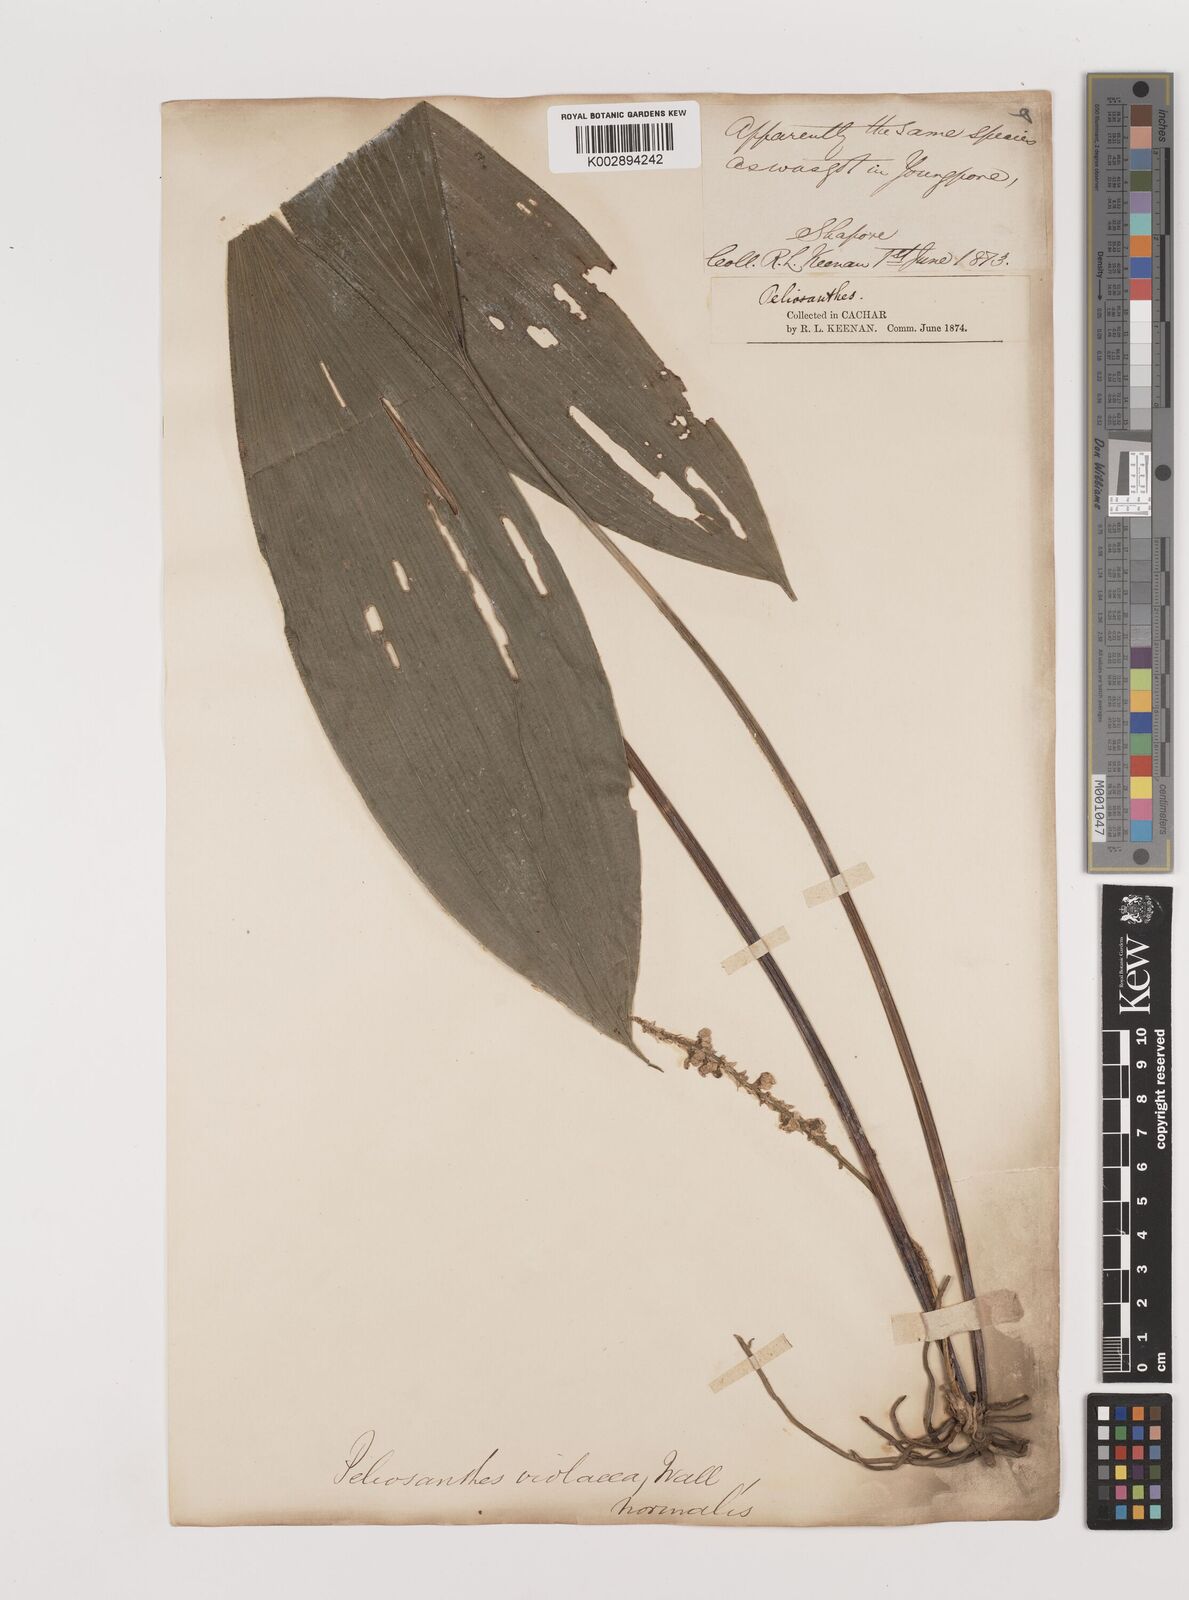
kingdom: Plantae
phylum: Tracheophyta
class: Liliopsida
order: Asparagales
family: Asparagaceae
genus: Peliosanthes
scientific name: Peliosanthes teta
